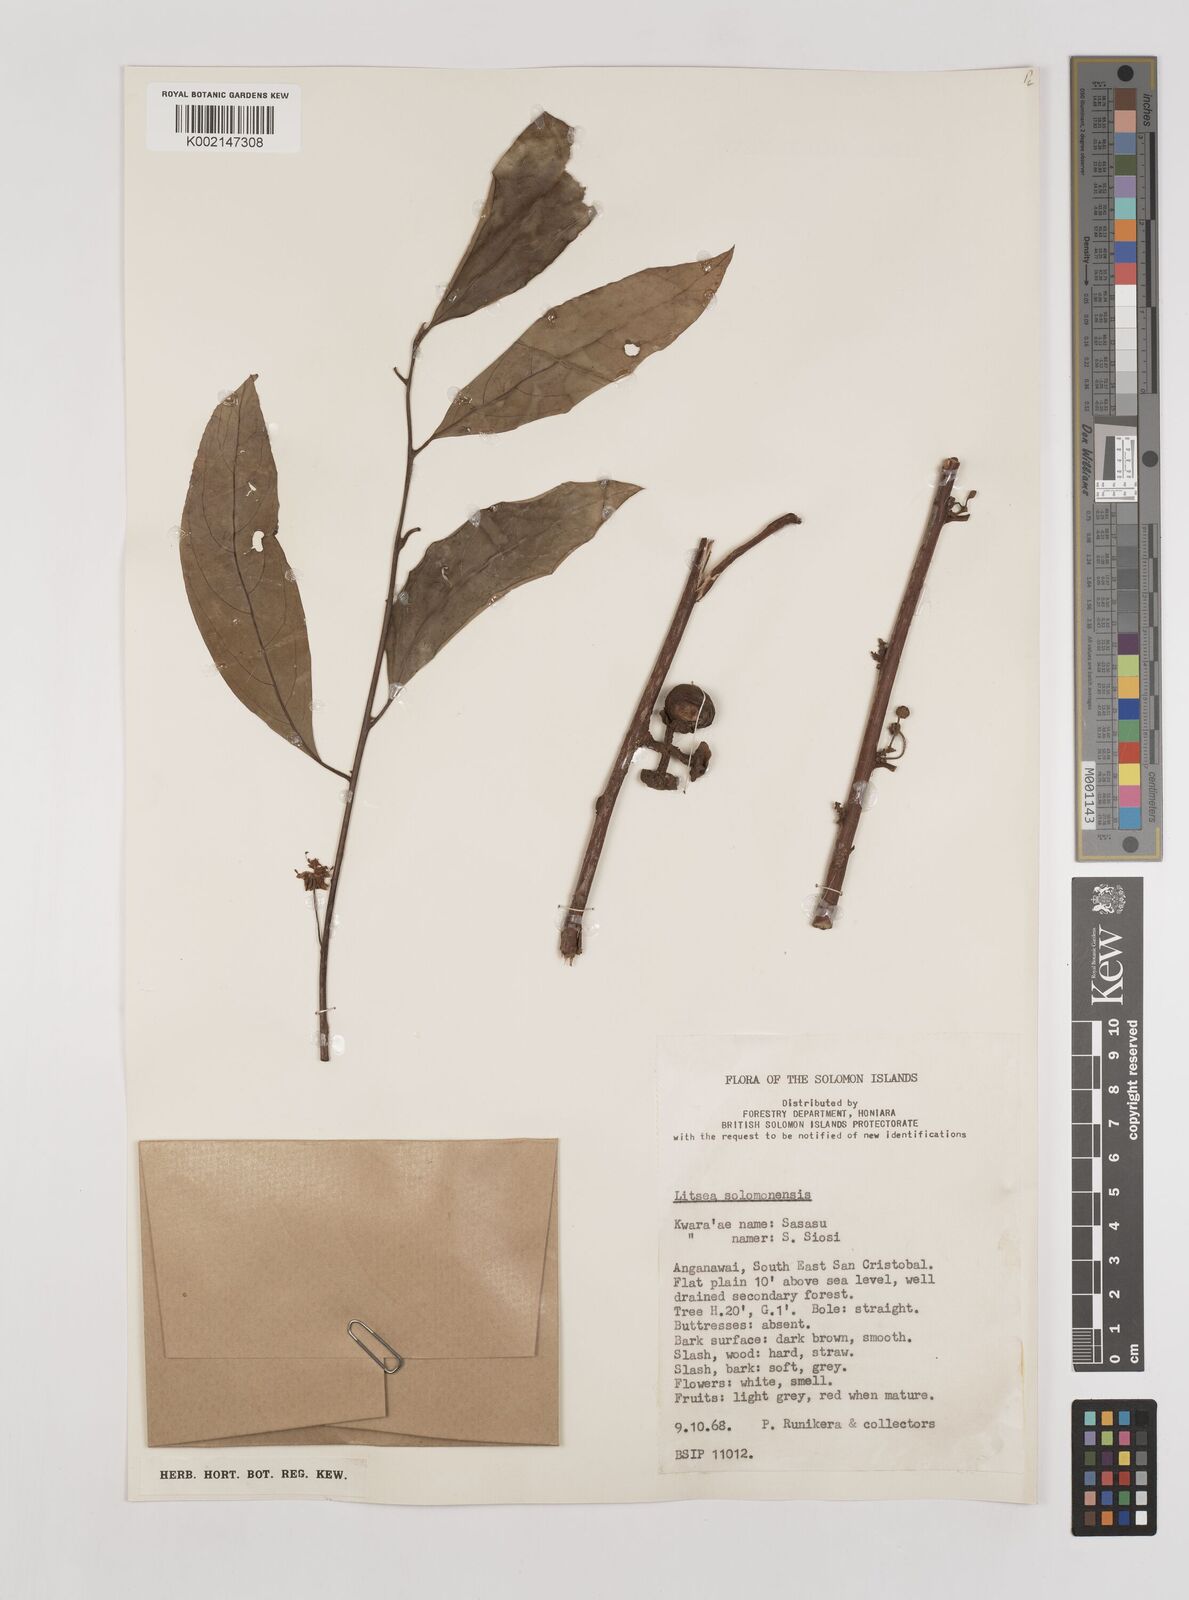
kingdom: Plantae
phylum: Tracheophyta
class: Magnoliopsida
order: Laurales
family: Lauraceae
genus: Litsea
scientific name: Litsea timoriana
